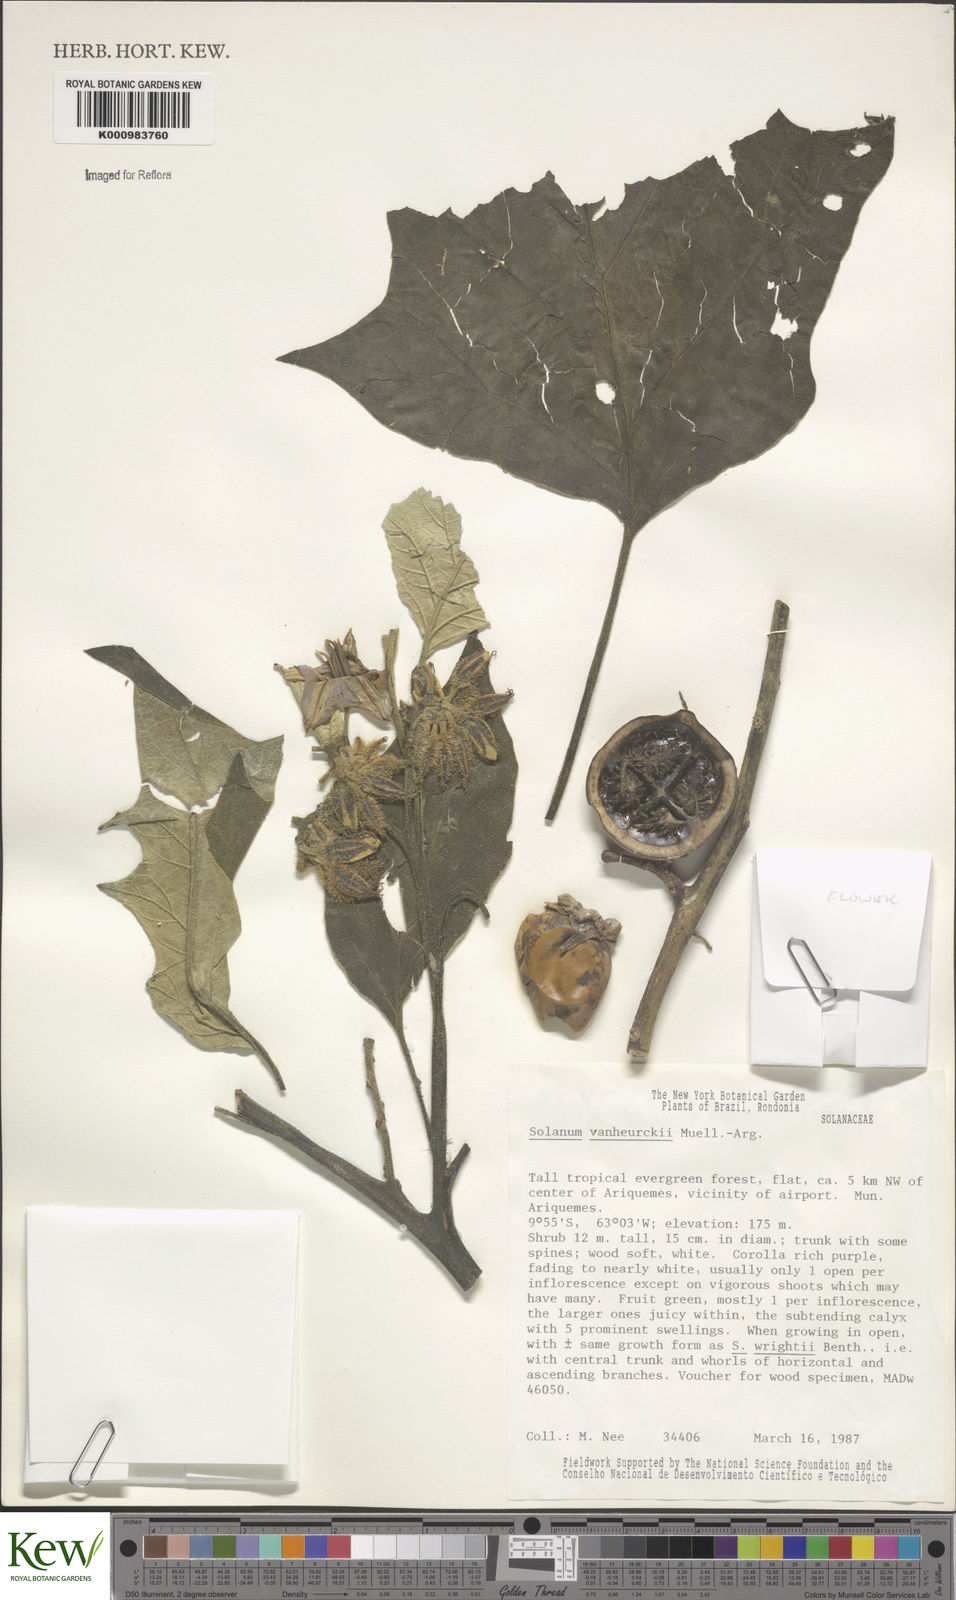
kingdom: Plantae
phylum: Tracheophyta
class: Magnoliopsida
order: Solanales
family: Solanaceae
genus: Solanum
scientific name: Solanum
